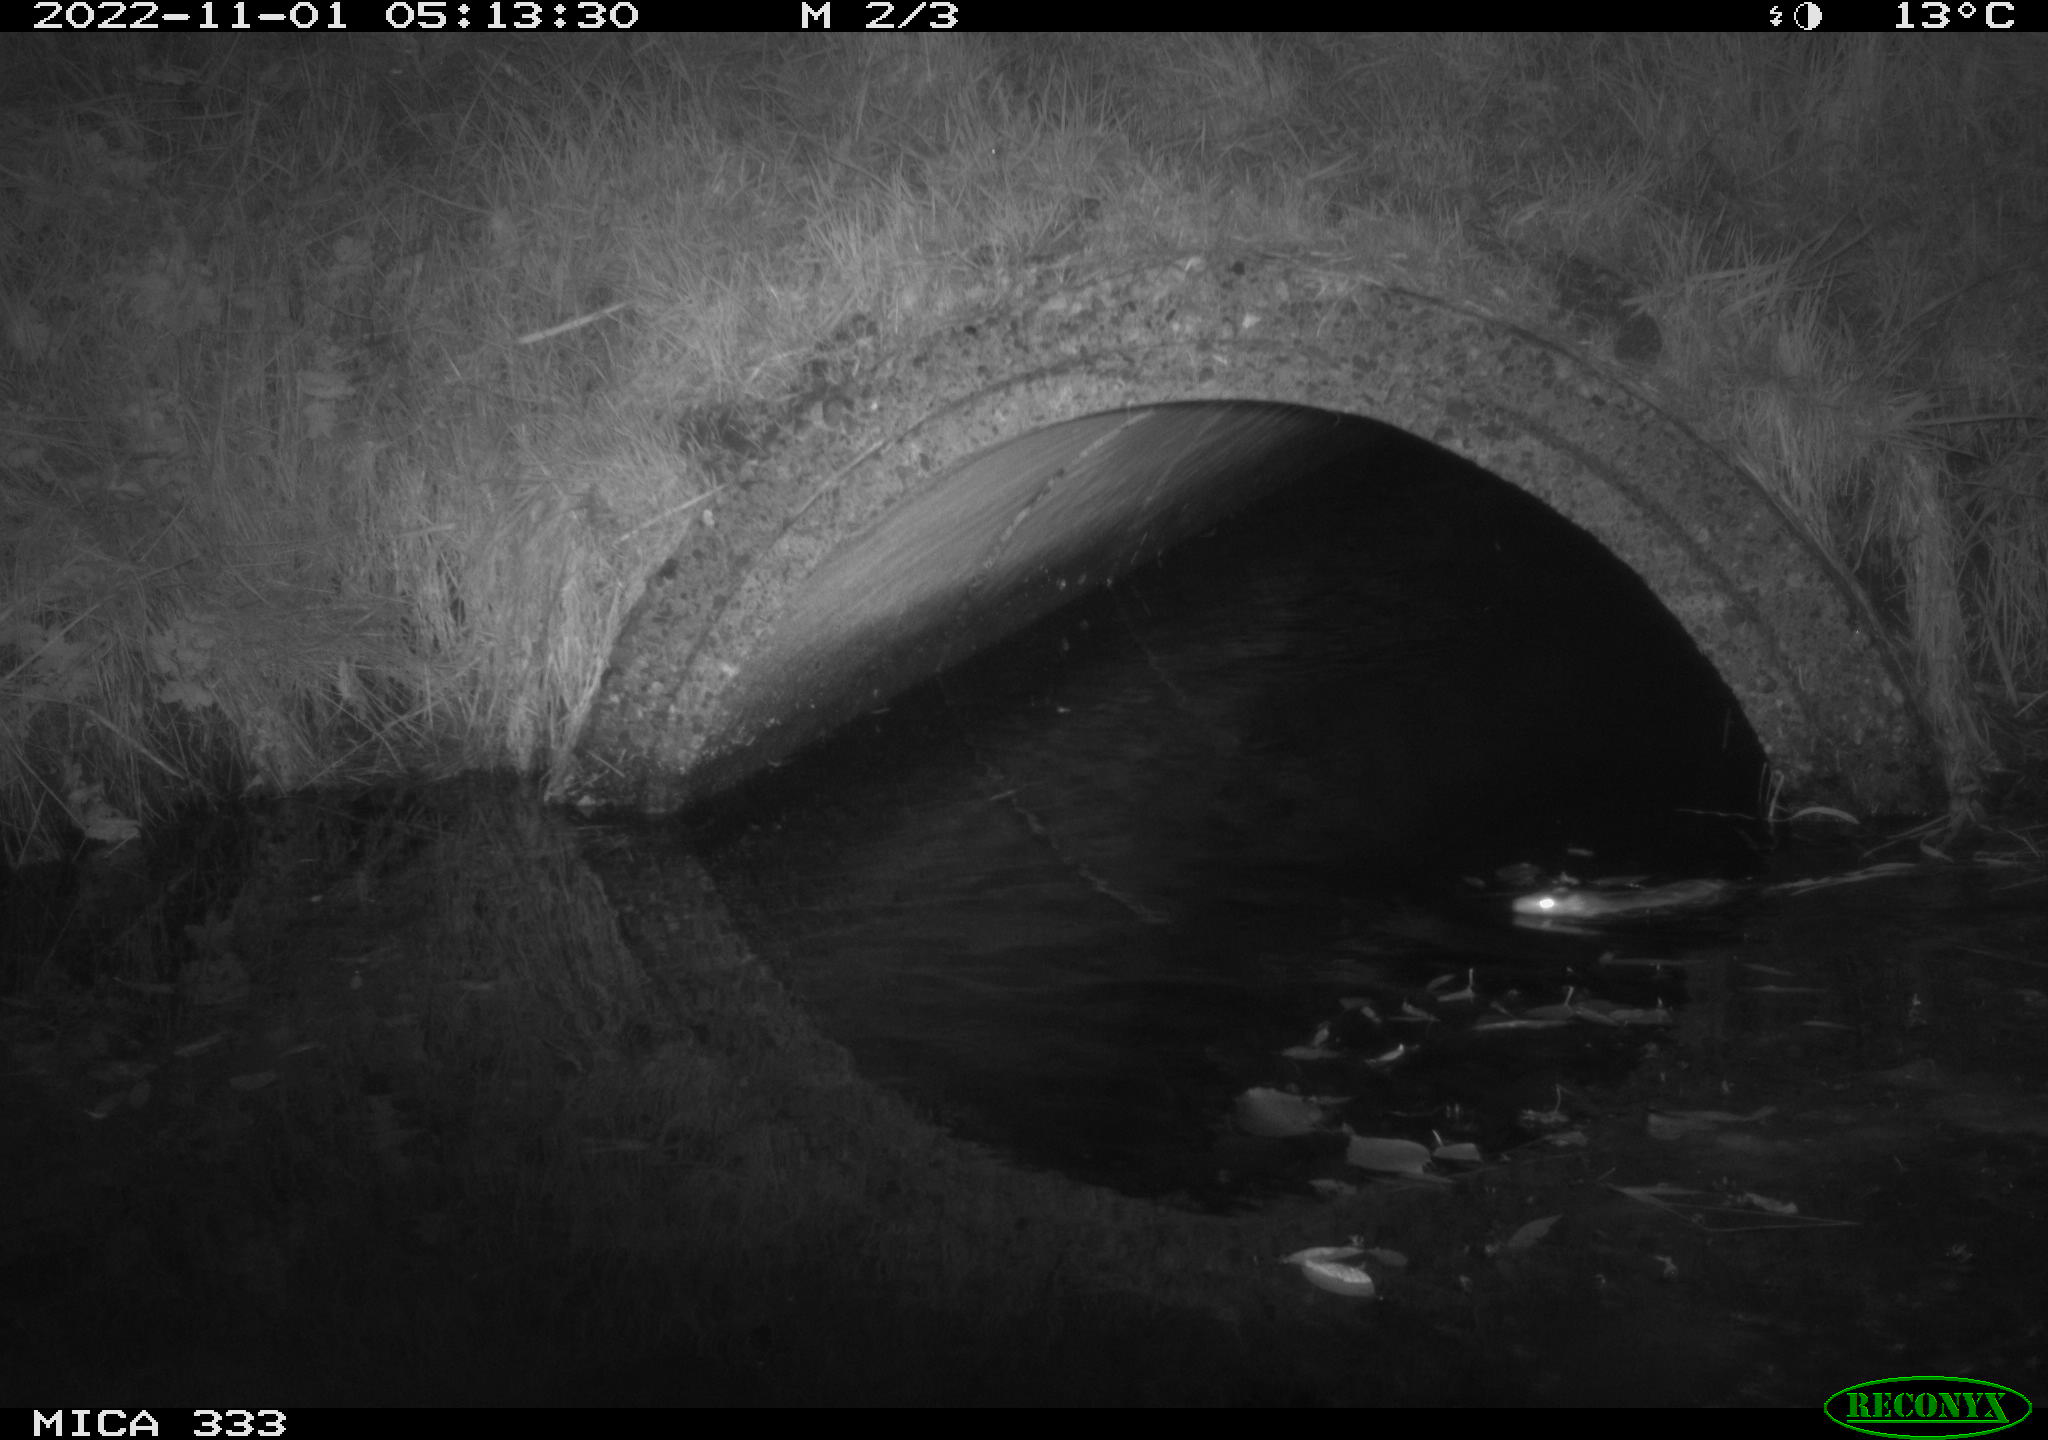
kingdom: Animalia
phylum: Chordata
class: Mammalia
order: Rodentia
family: Muridae
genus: Rattus
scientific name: Rattus norvegicus
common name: Brown rat
